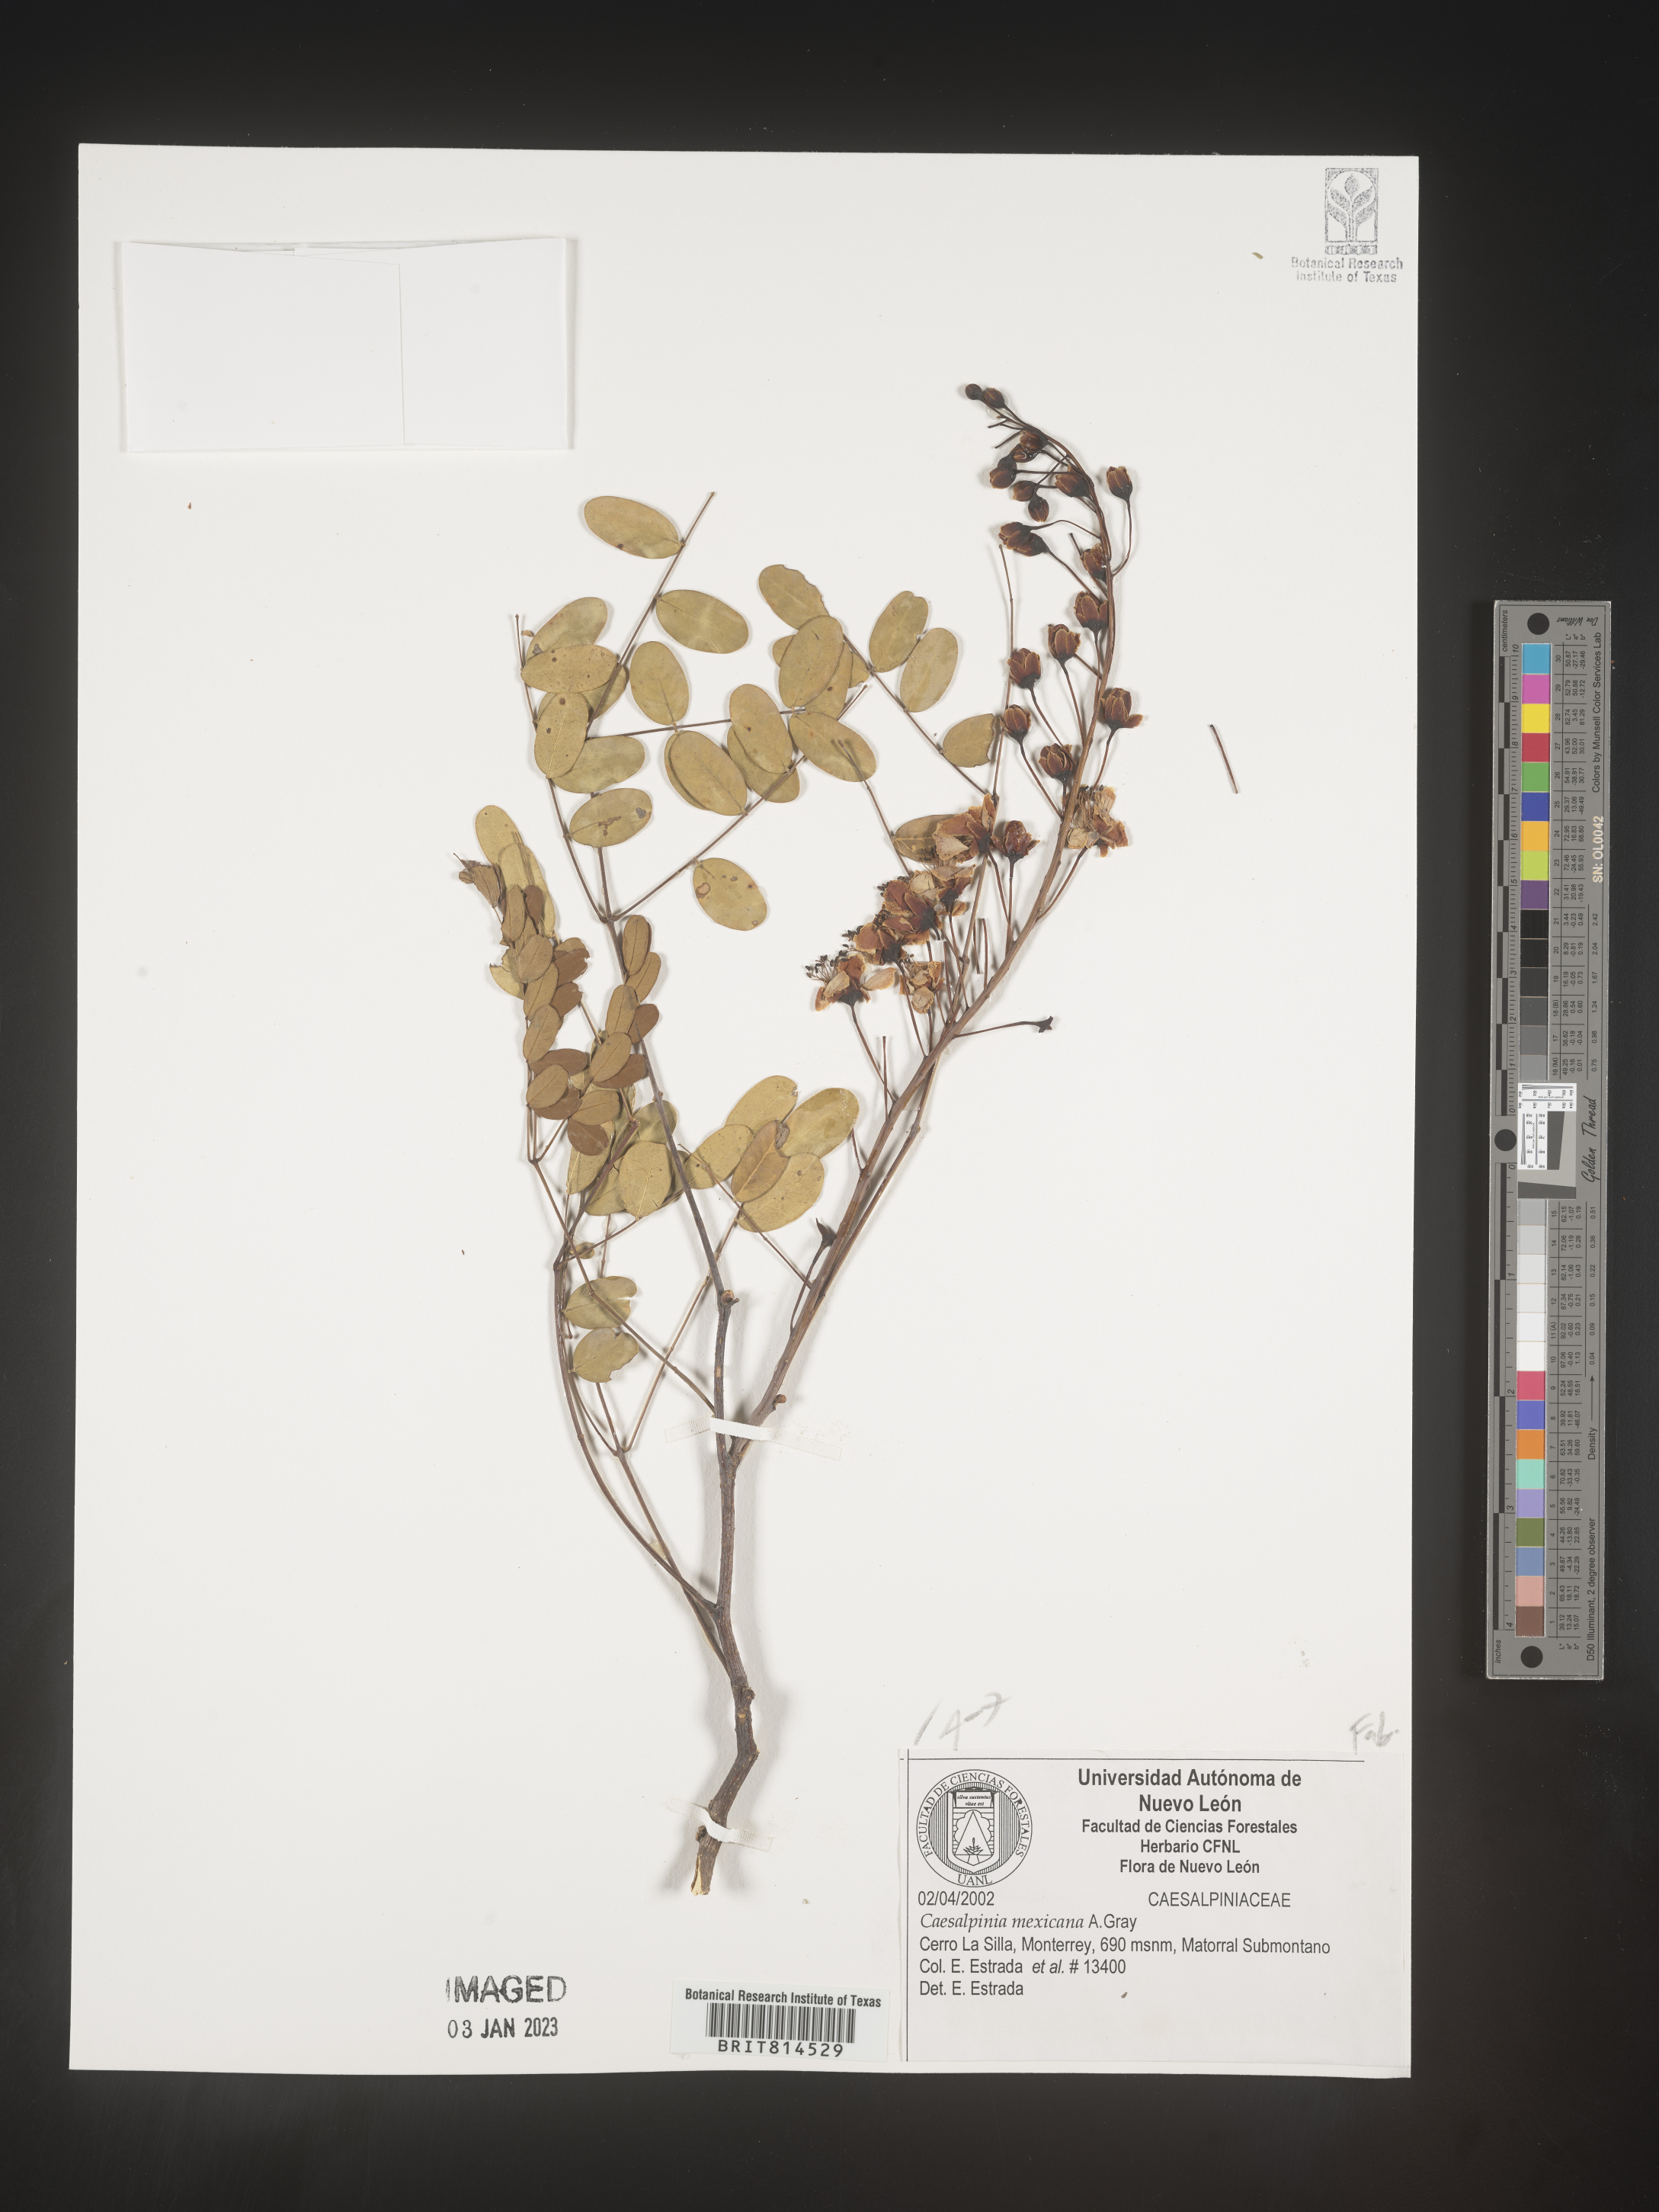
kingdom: Plantae
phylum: Tracheophyta
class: Magnoliopsida
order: Fabales
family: Fabaceae
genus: Caesalpinia
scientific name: Caesalpinia
